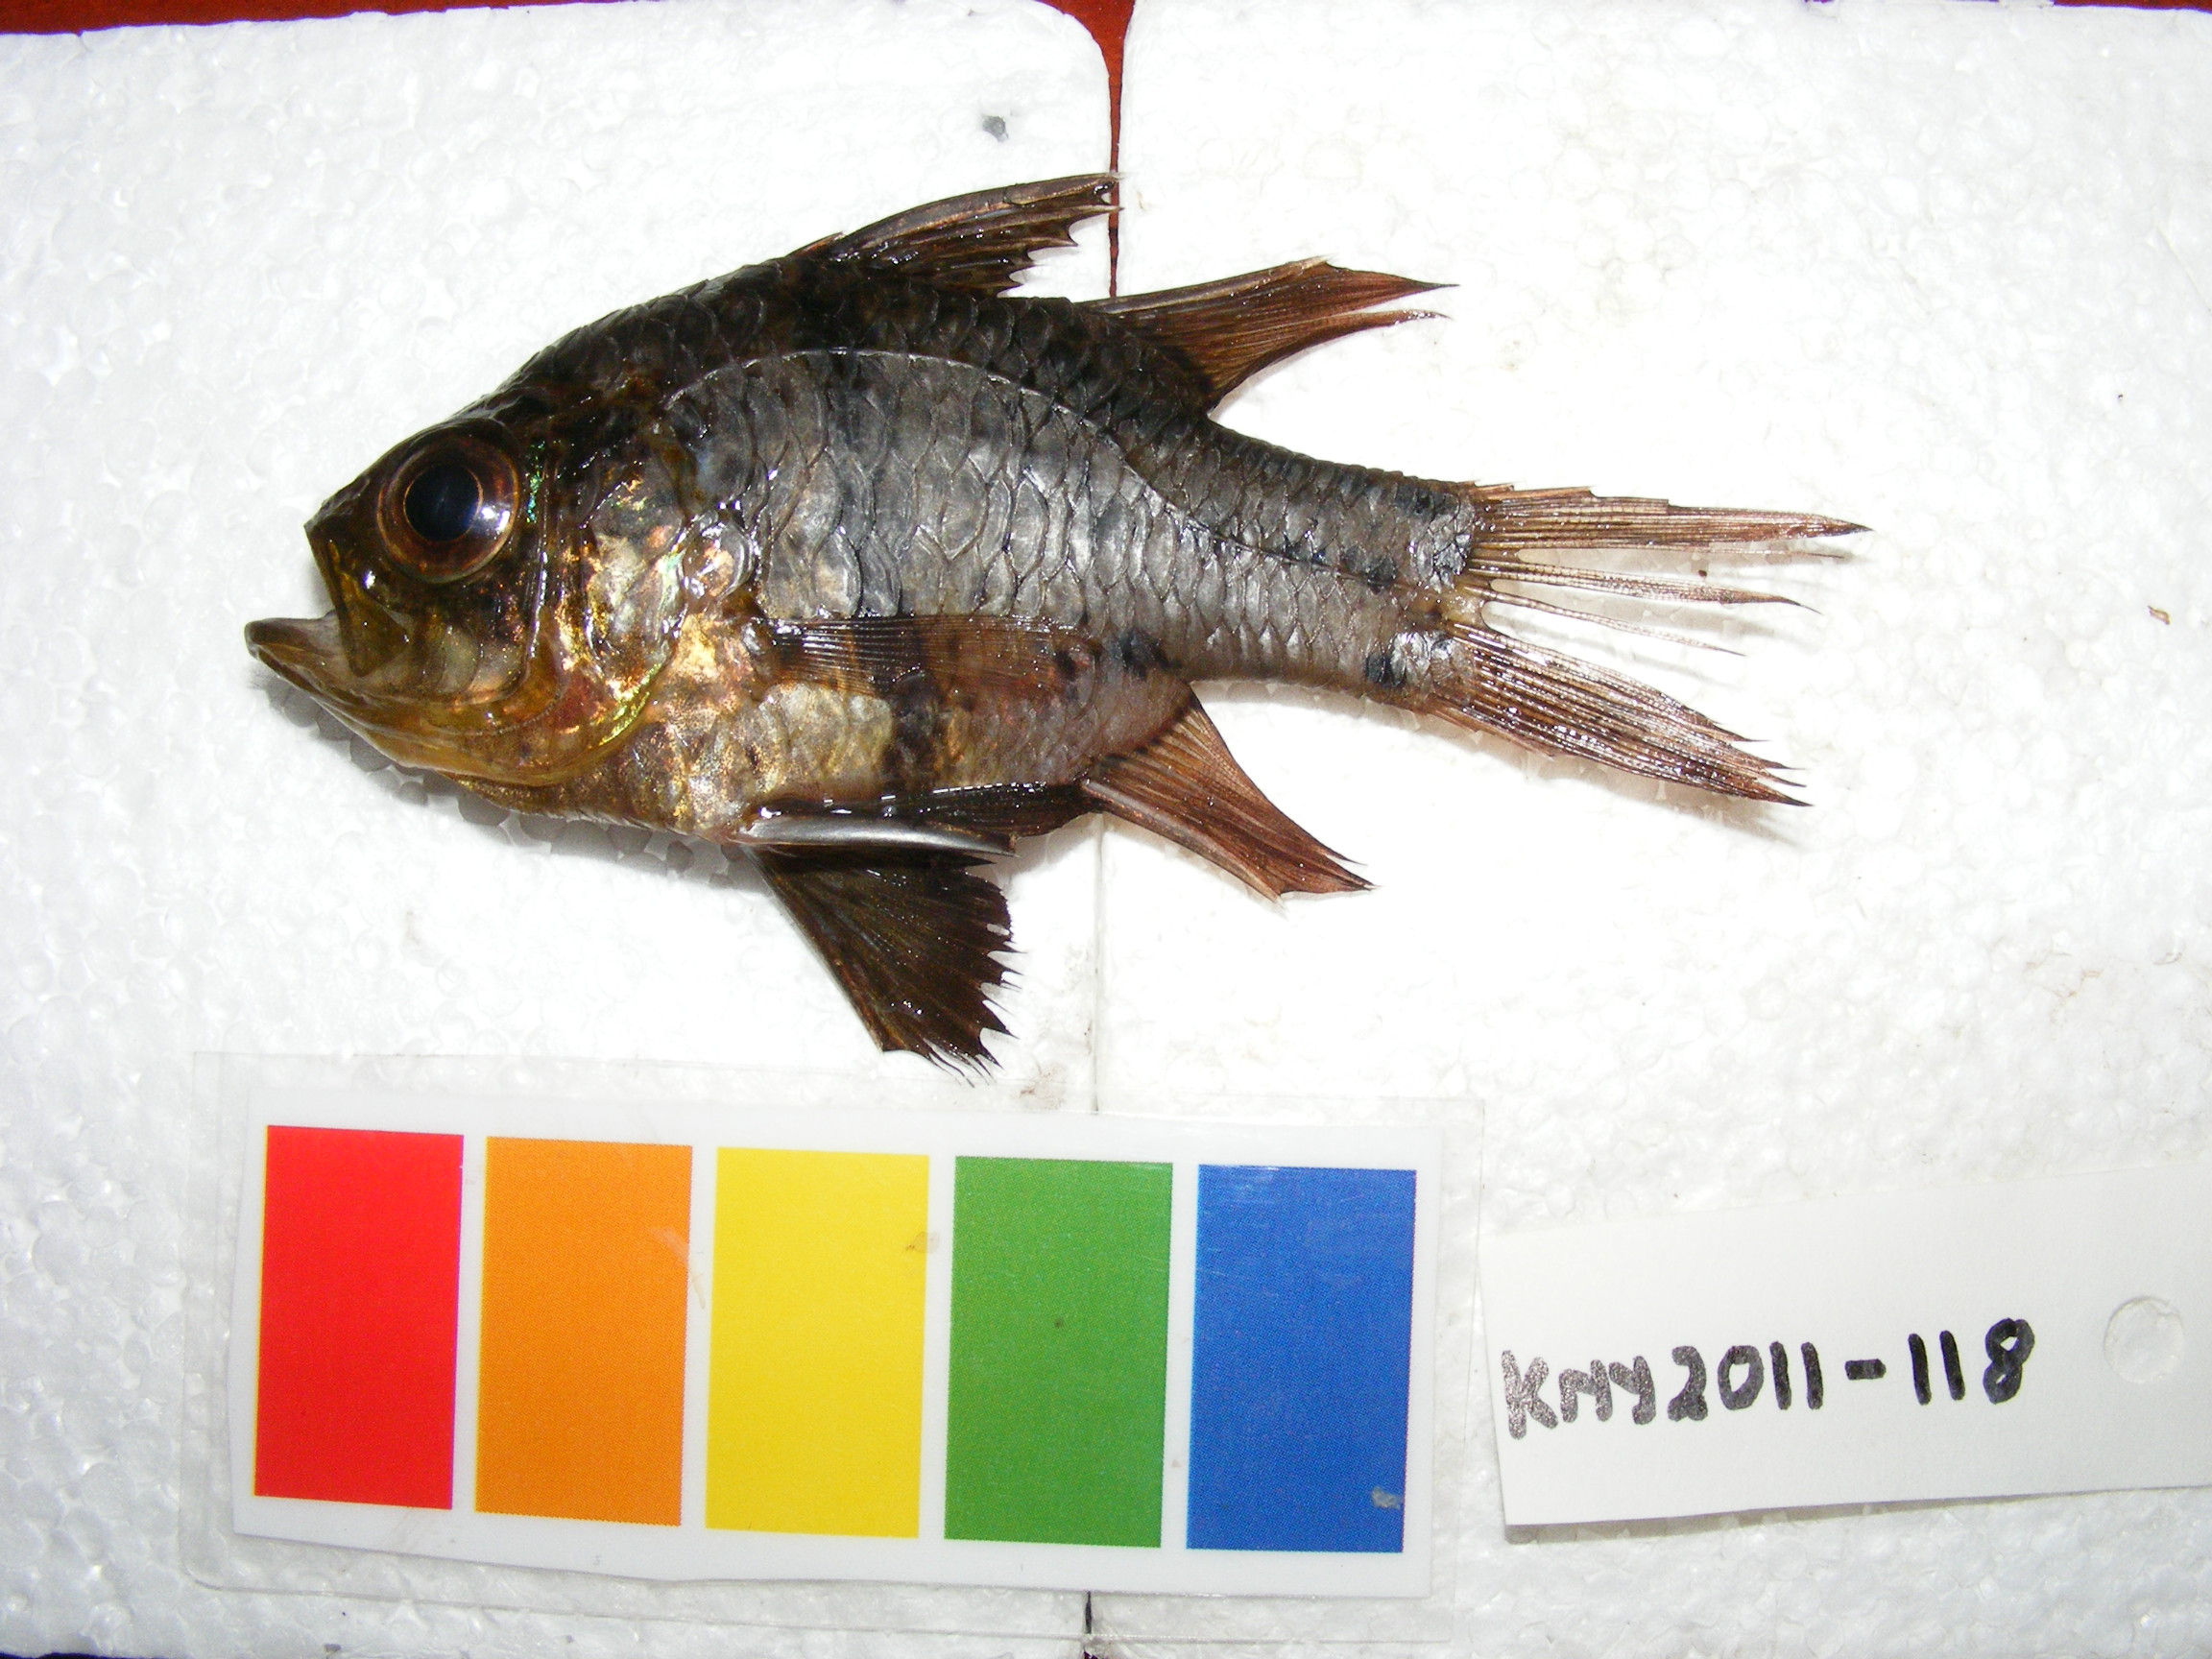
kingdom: Animalia
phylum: Chordata
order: Perciformes
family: Apogonidae
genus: Sphaeramia
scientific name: Sphaeramia orbicularis
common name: Polka-dot cardinalfish
